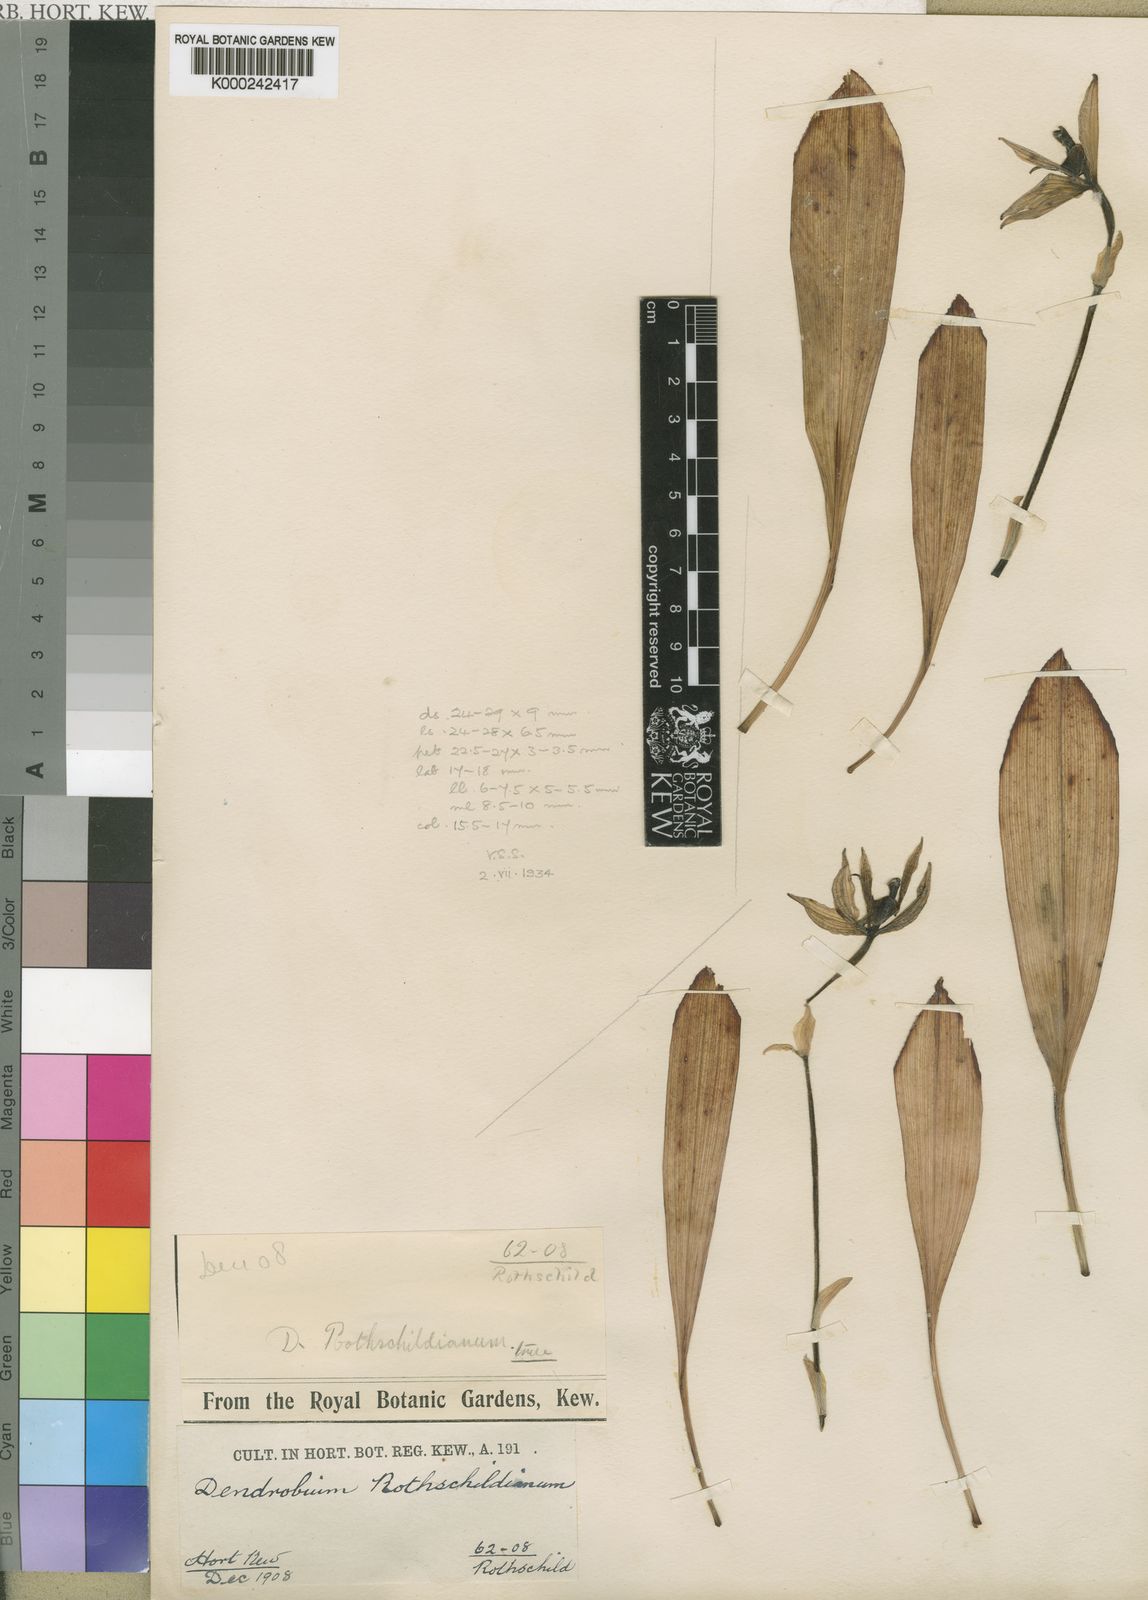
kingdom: Plantae
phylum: Tracheophyta
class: Liliopsida
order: Asparagales
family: Orchidaceae
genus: Ancistrochilus
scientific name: Ancistrochilus rothschildianus
